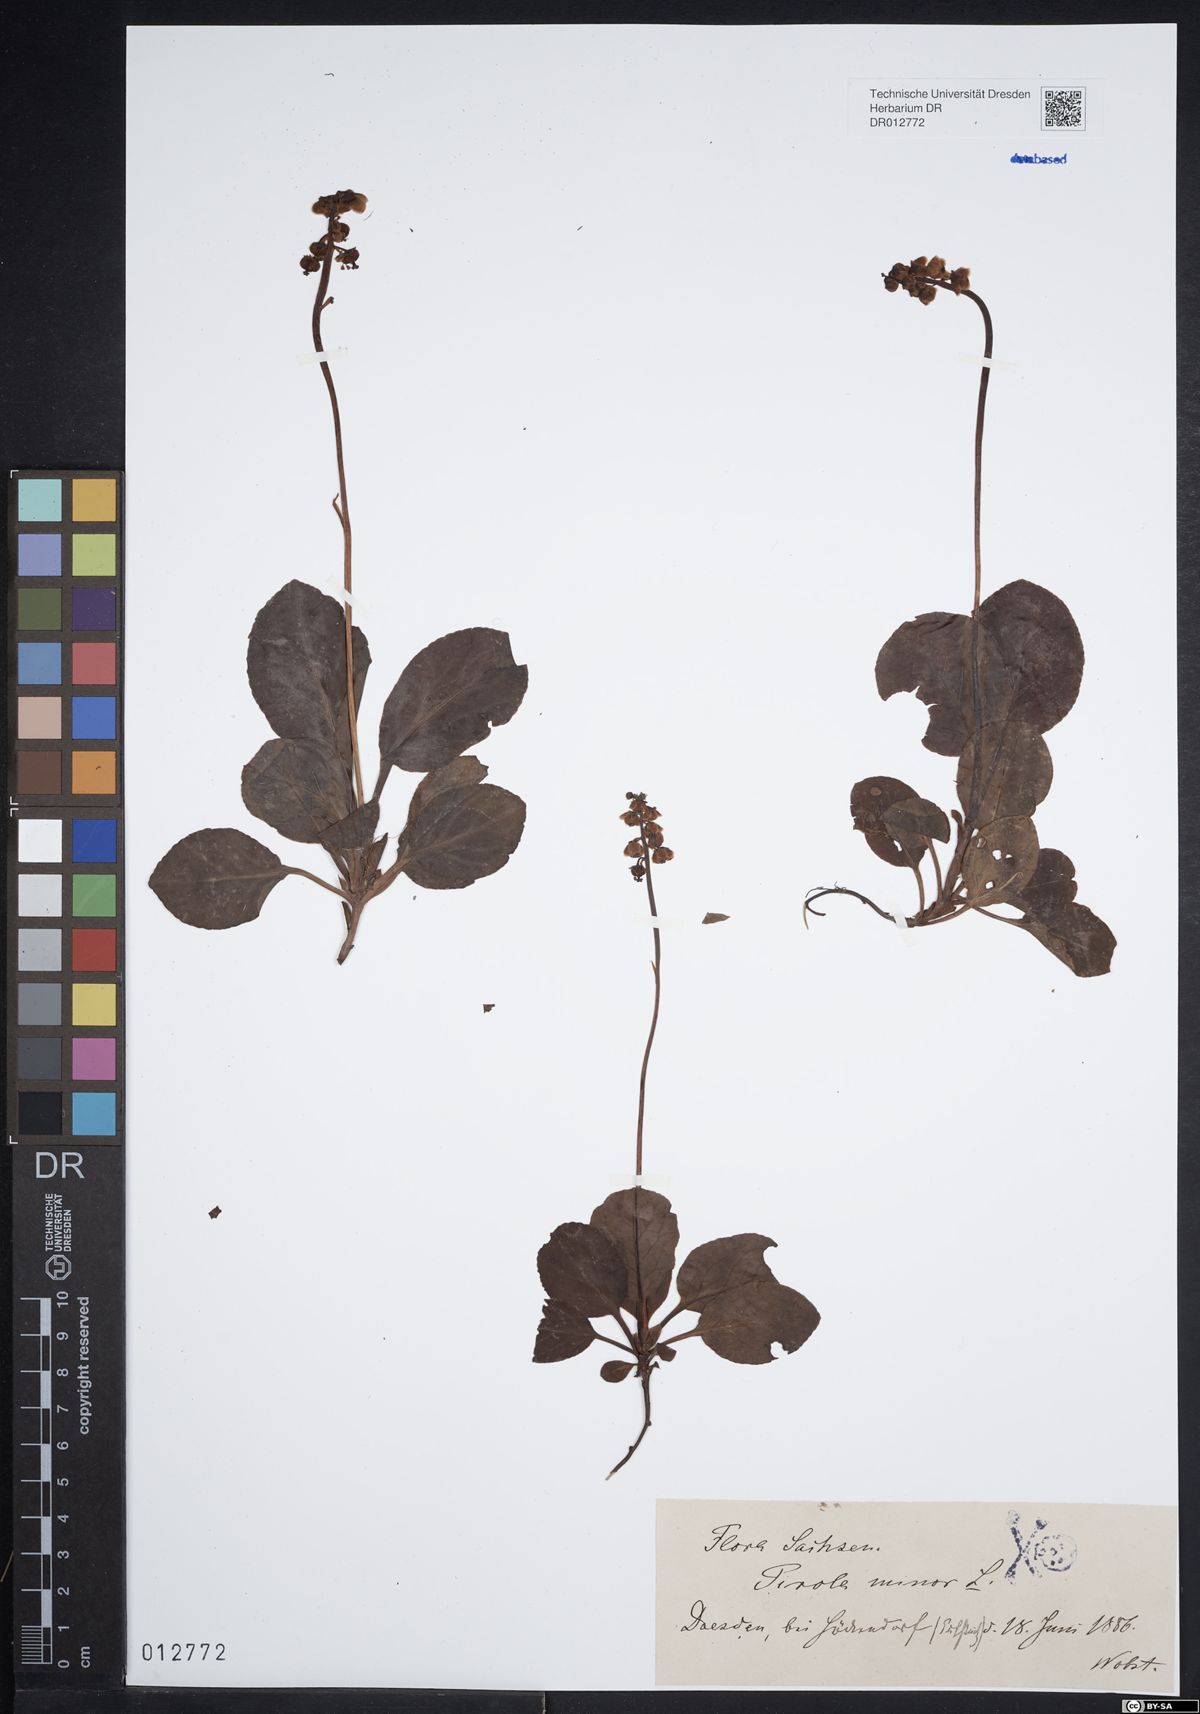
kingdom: Plantae
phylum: Tracheophyta
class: Magnoliopsida
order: Ericales
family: Ericaceae
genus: Pyrola
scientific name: Pyrola minor
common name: Common wintergreen
